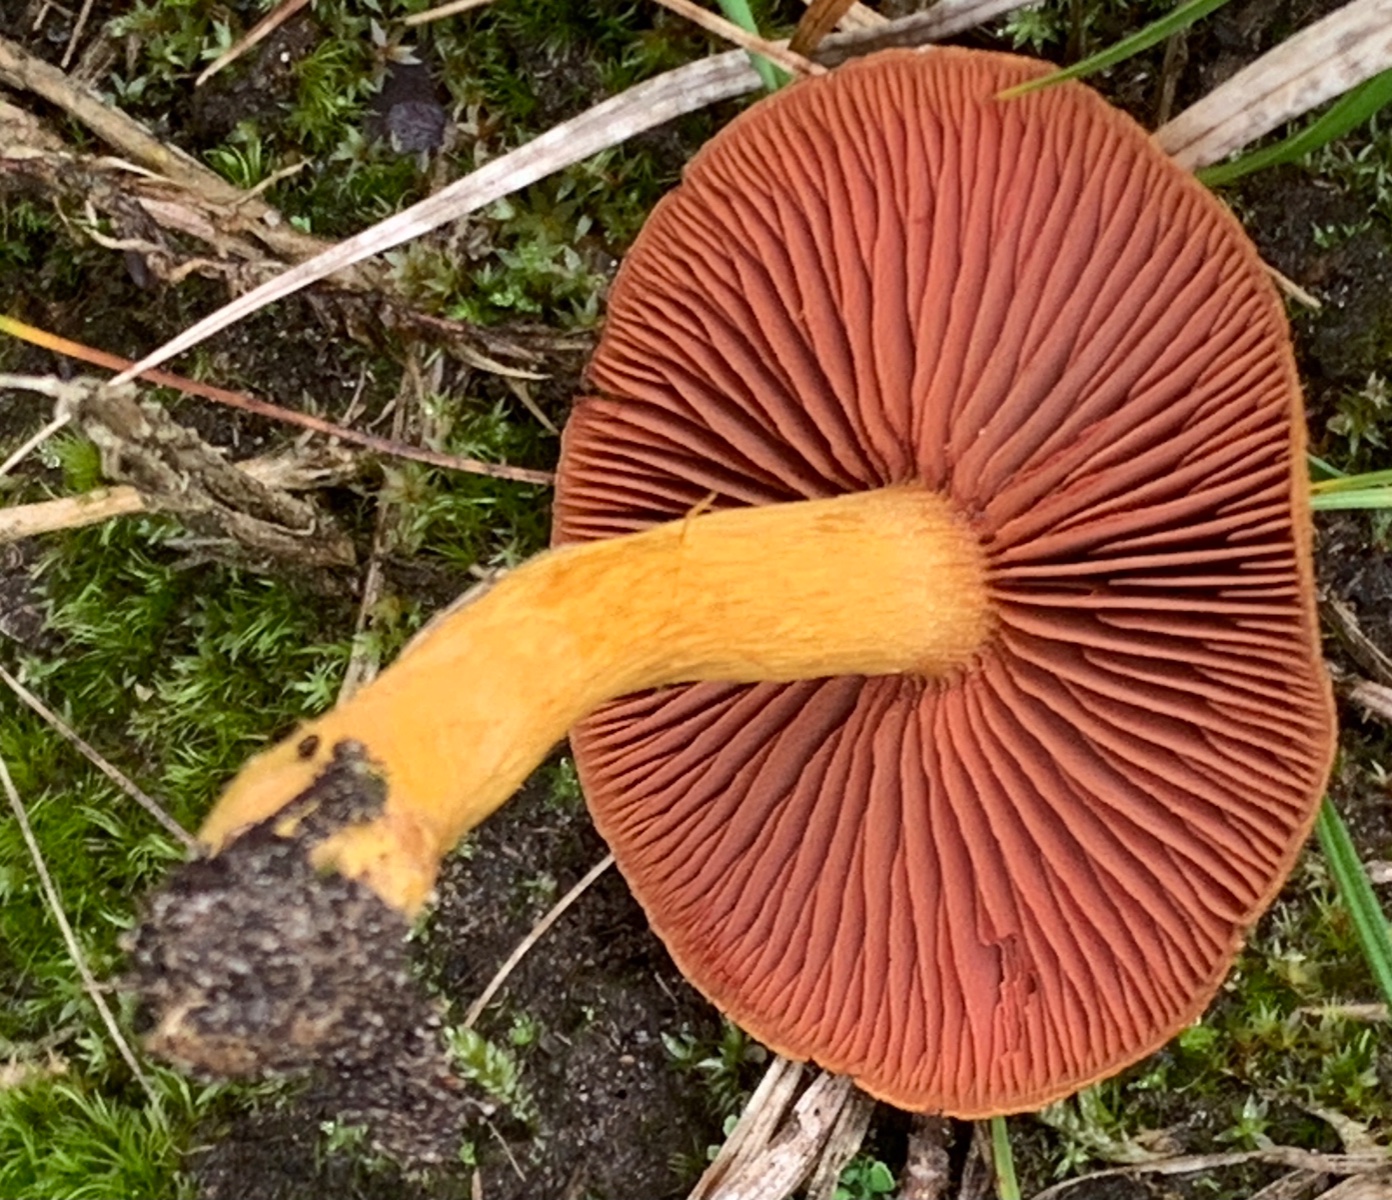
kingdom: Fungi
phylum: Basidiomycota
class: Agaricomycetes
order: Agaricales
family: Cortinariaceae
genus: Cortinarius
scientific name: Cortinarius
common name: cinnoberbladet slørhat
